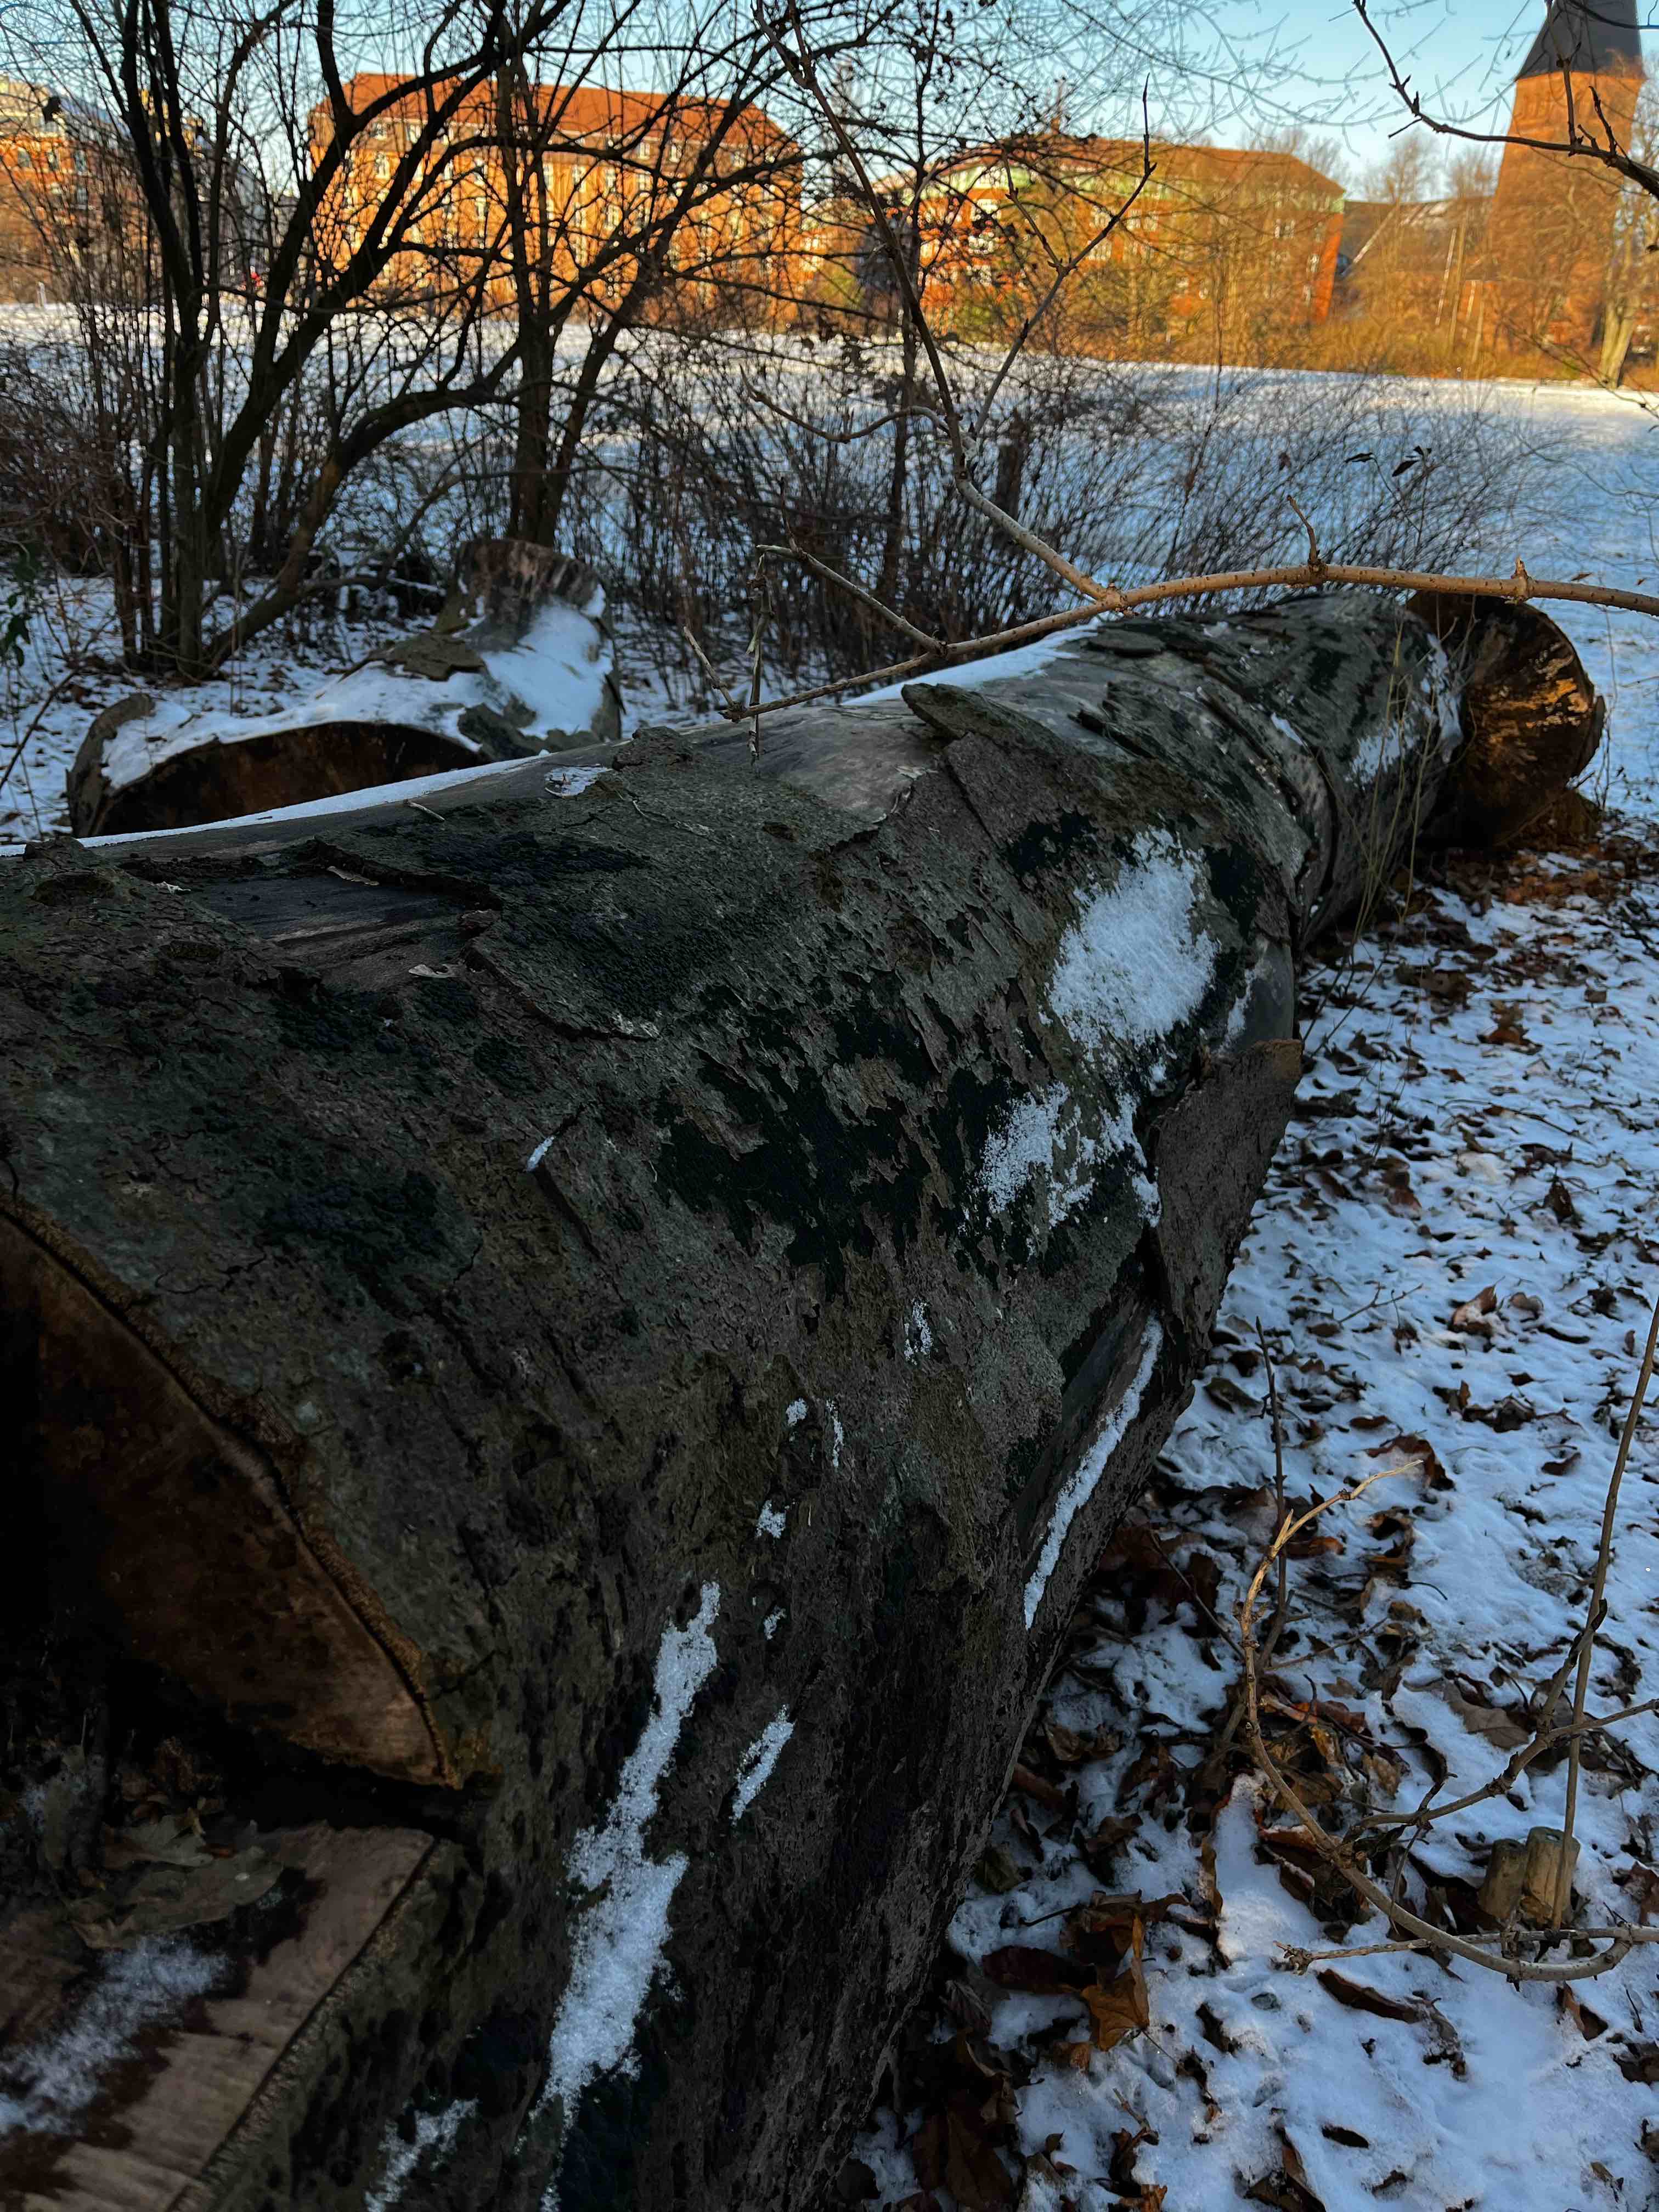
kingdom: Fungi
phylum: Basidiomycota
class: Agaricomycetes
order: Agaricales
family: Physalacriaceae
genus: Flammulina
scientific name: Flammulina velutipes
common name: gul fløjlsfod
